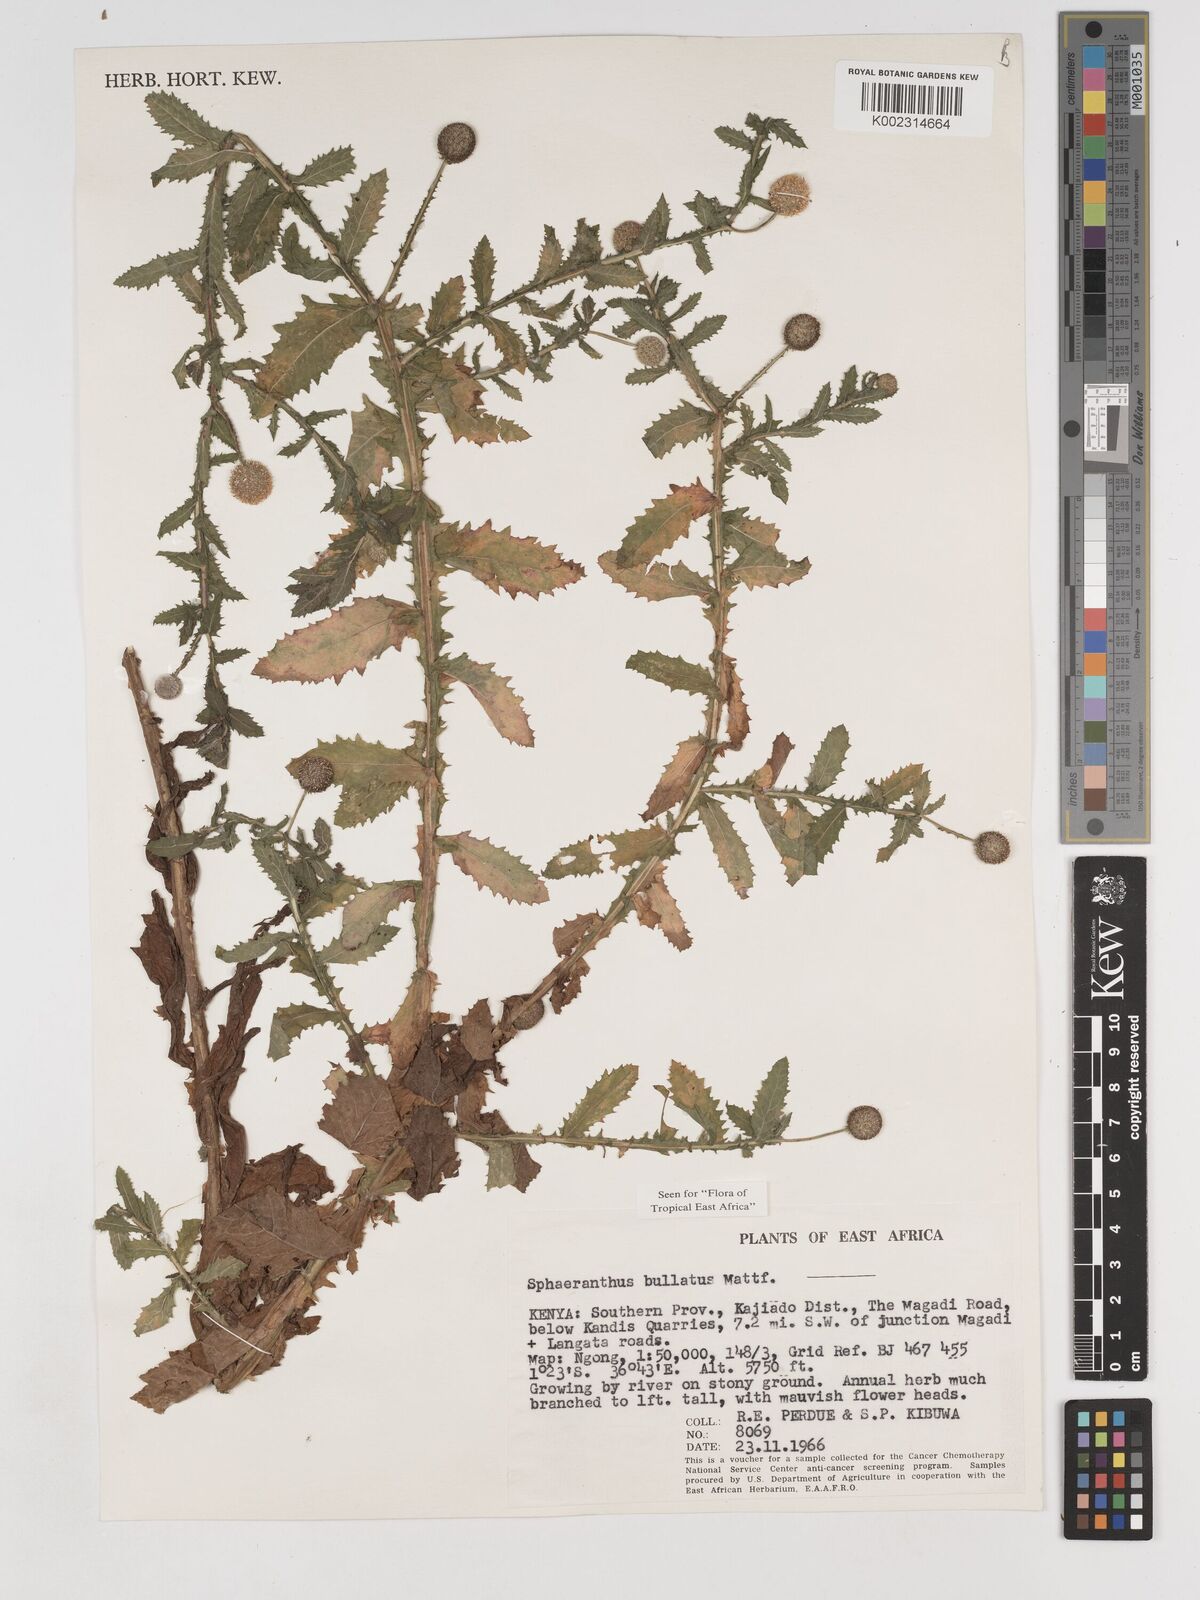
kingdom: Plantae
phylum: Tracheophyta
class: Magnoliopsida
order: Asterales
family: Asteraceae
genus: Sphaeranthus
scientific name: Sphaeranthus bullatus
